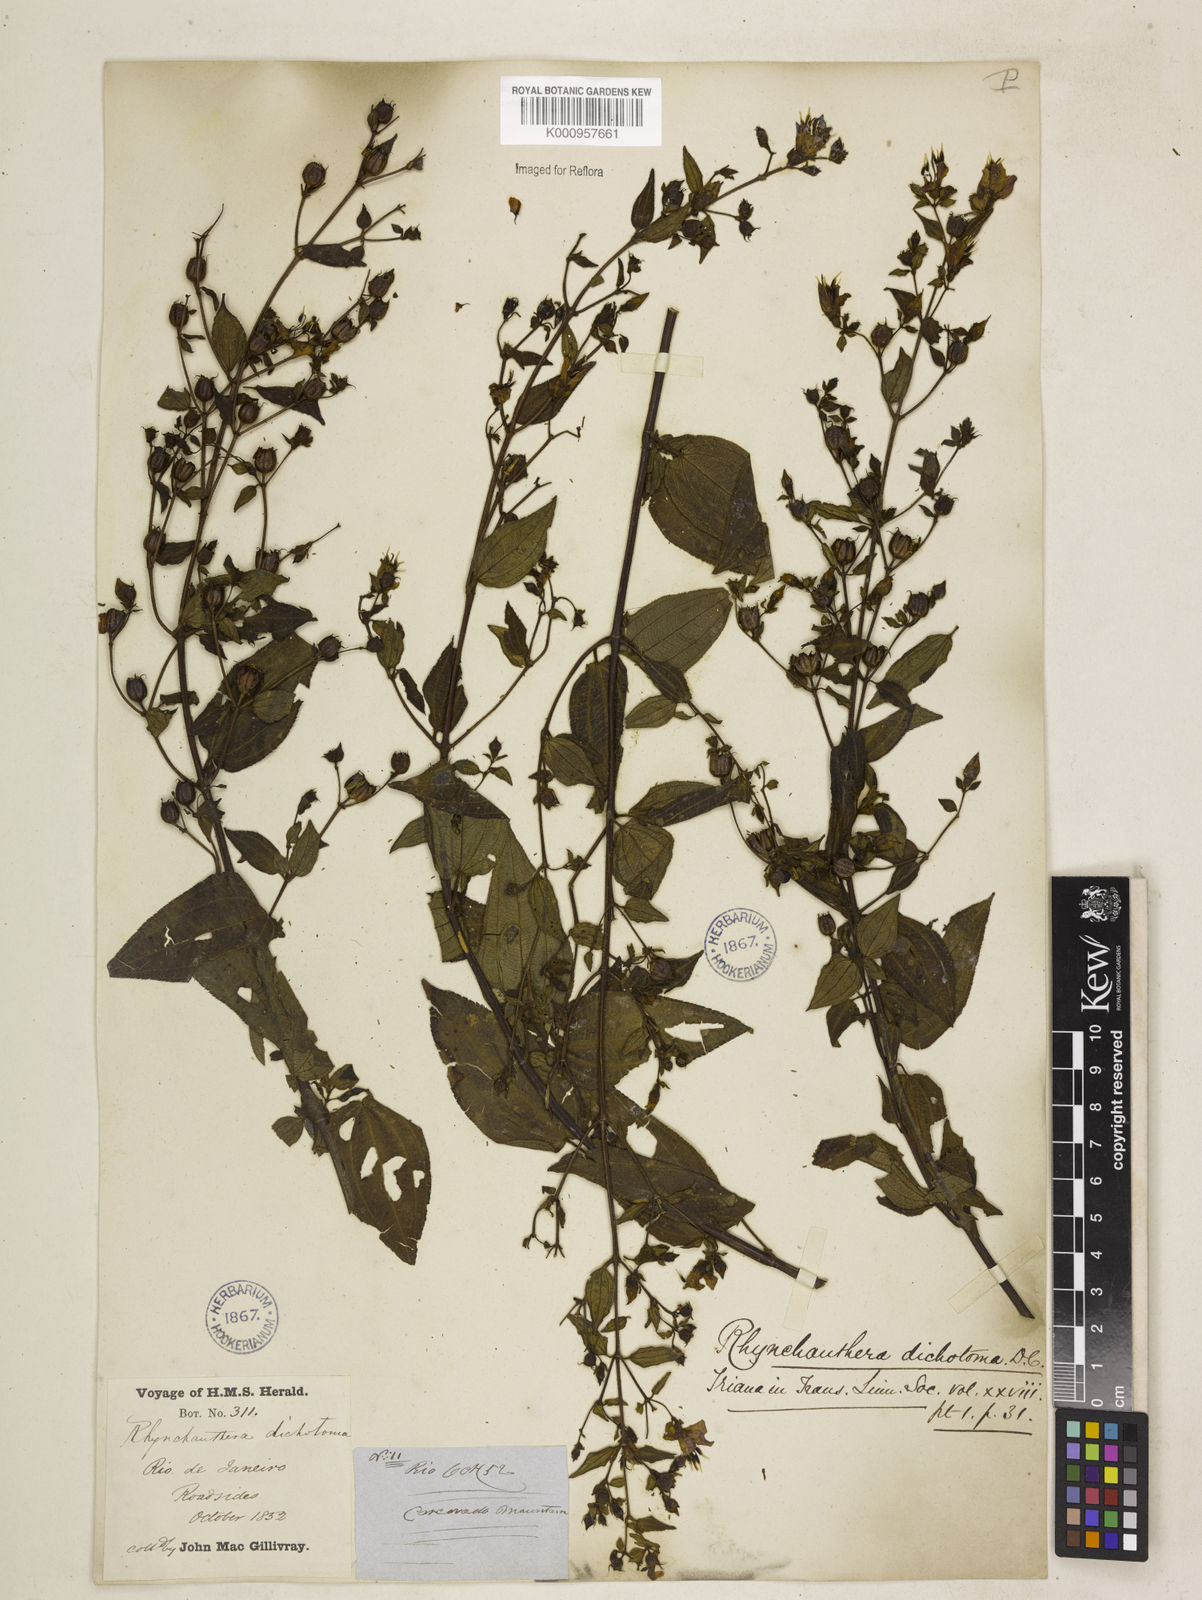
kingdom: Plantae
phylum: Tracheophyta
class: Magnoliopsida
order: Myrtales
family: Melastomataceae
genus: Rhynchanthera
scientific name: Rhynchanthera dichotoma
